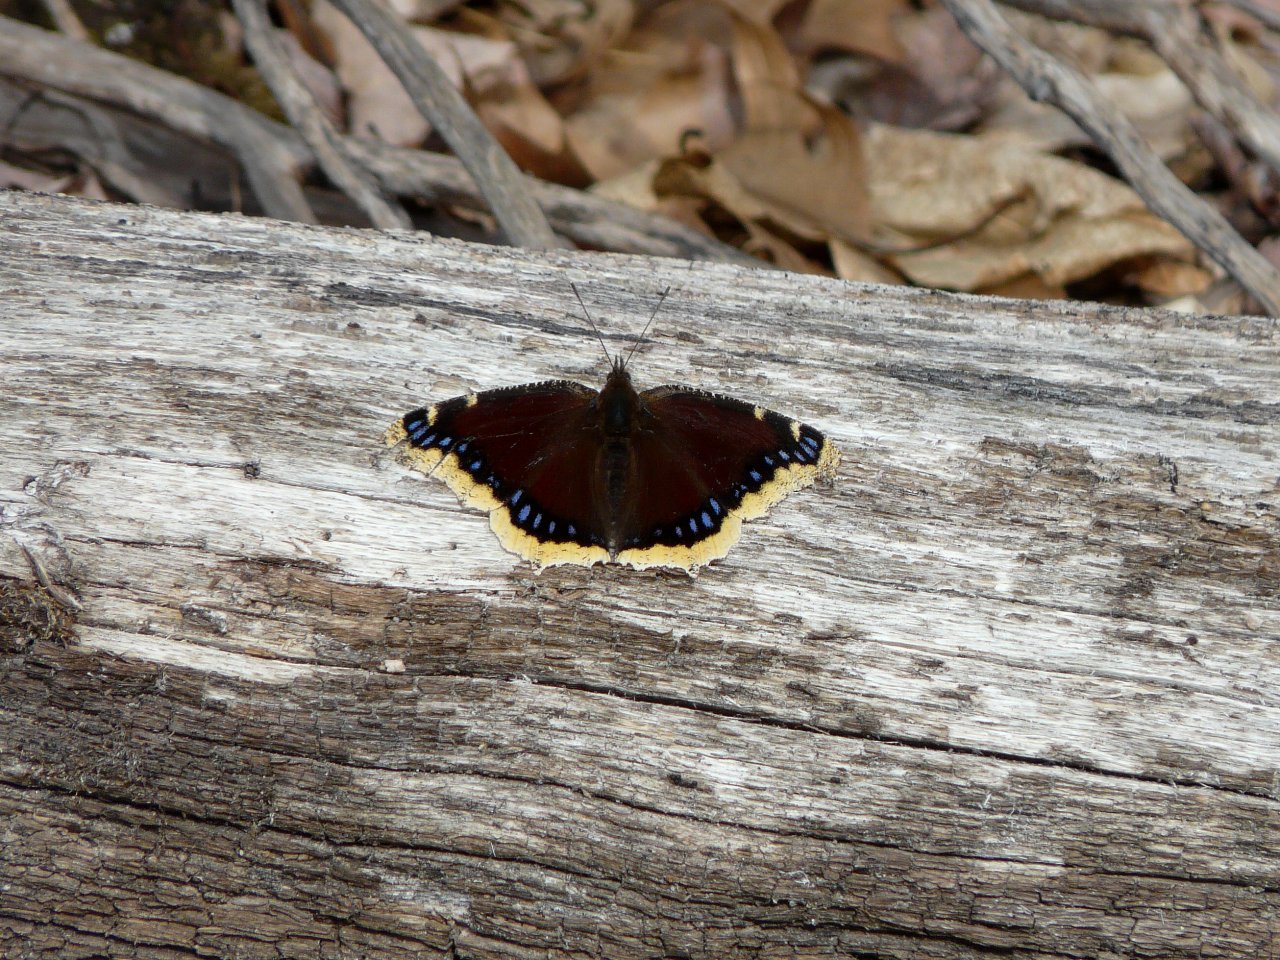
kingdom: Animalia
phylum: Arthropoda
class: Insecta
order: Lepidoptera
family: Nymphalidae
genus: Nymphalis
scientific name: Nymphalis antiopa
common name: Mourning Cloak
